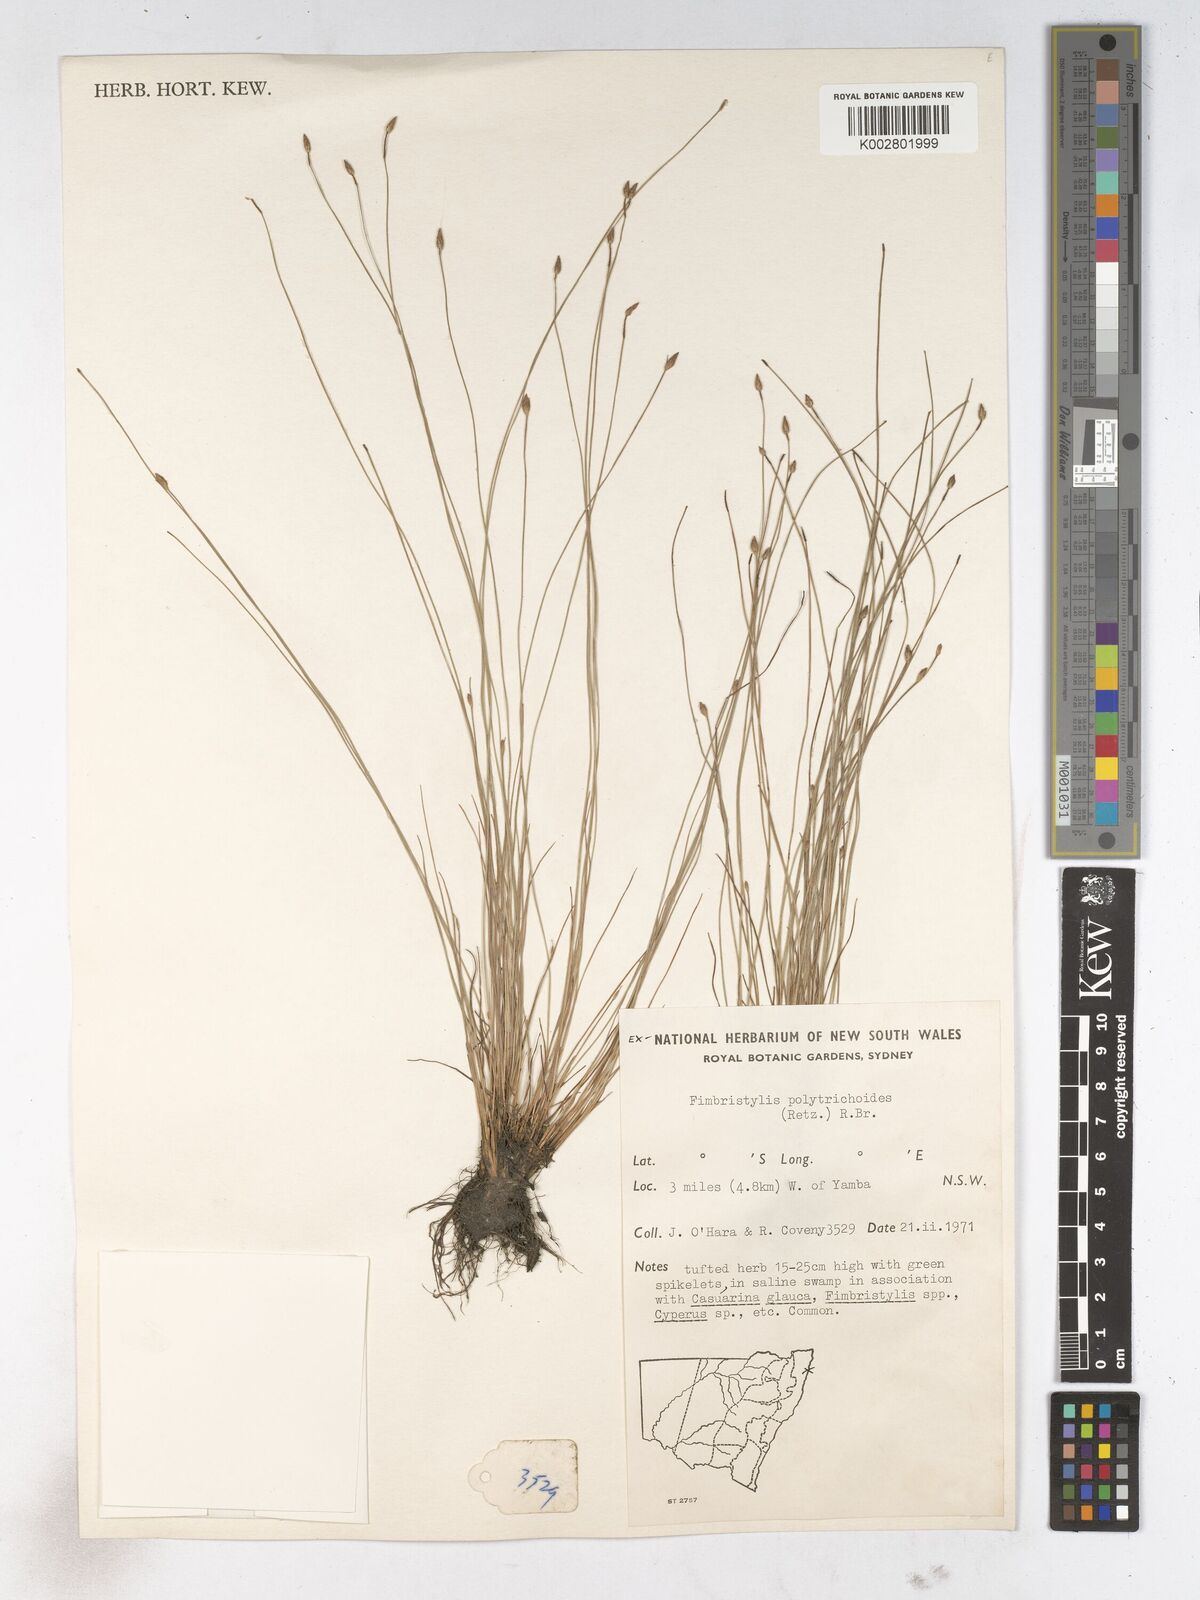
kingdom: Plantae
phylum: Tracheophyta
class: Liliopsida
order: Poales
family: Cyperaceae
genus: Fimbristylis
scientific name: Fimbristylis polytrichoides
